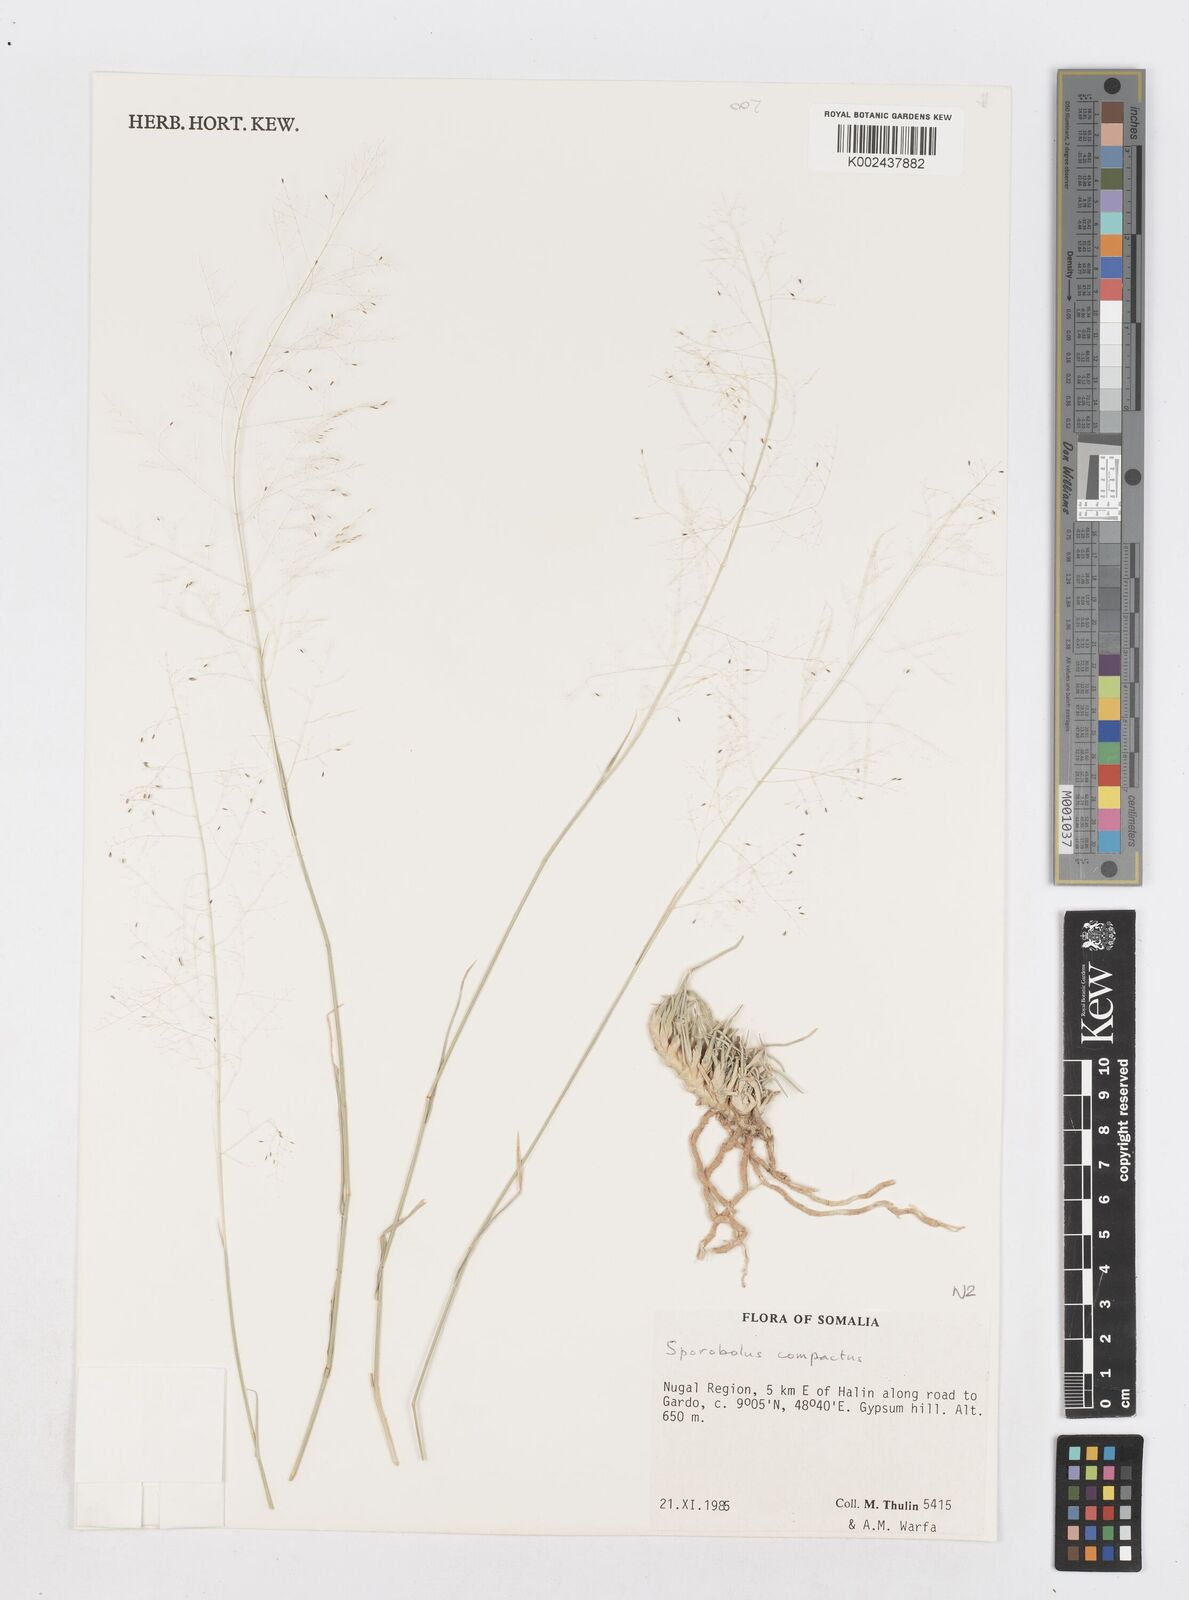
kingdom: Plantae
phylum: Tracheophyta
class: Liliopsida
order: Poales
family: Poaceae
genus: Sporobolus
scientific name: Sporobolus compactus
